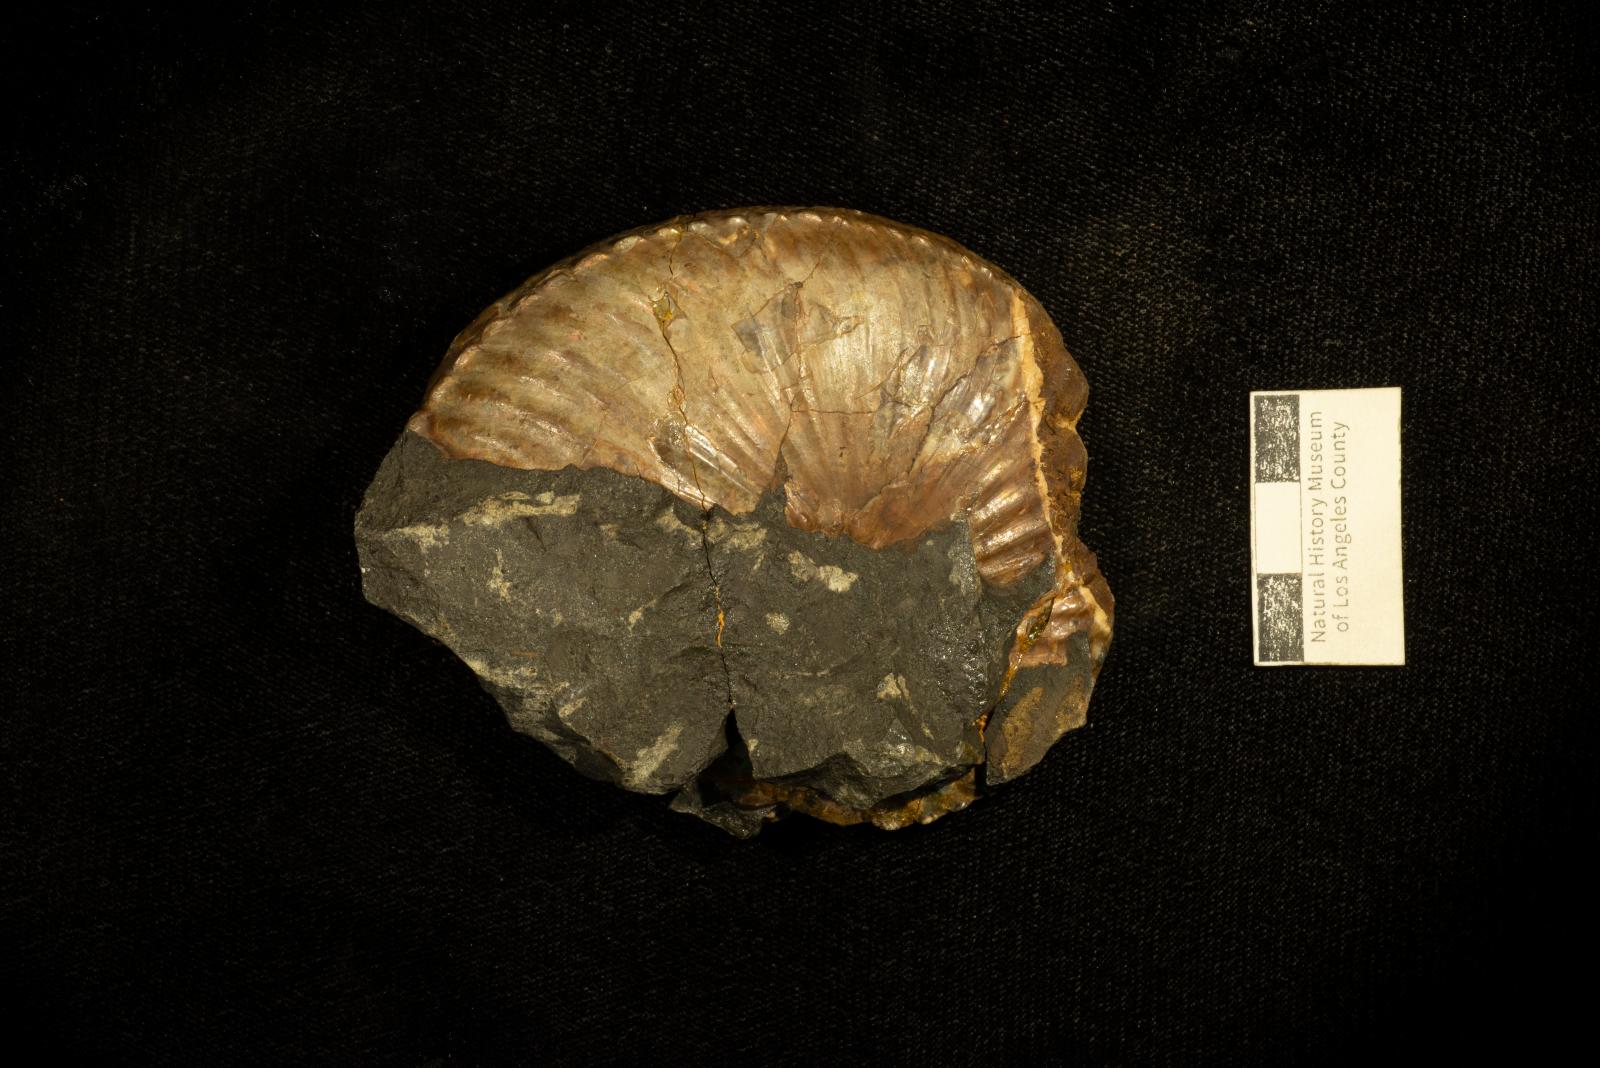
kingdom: Animalia
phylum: Mollusca
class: Cephalopoda
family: Collignoniceratidae
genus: Submortoniceras
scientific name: Submortoniceras
